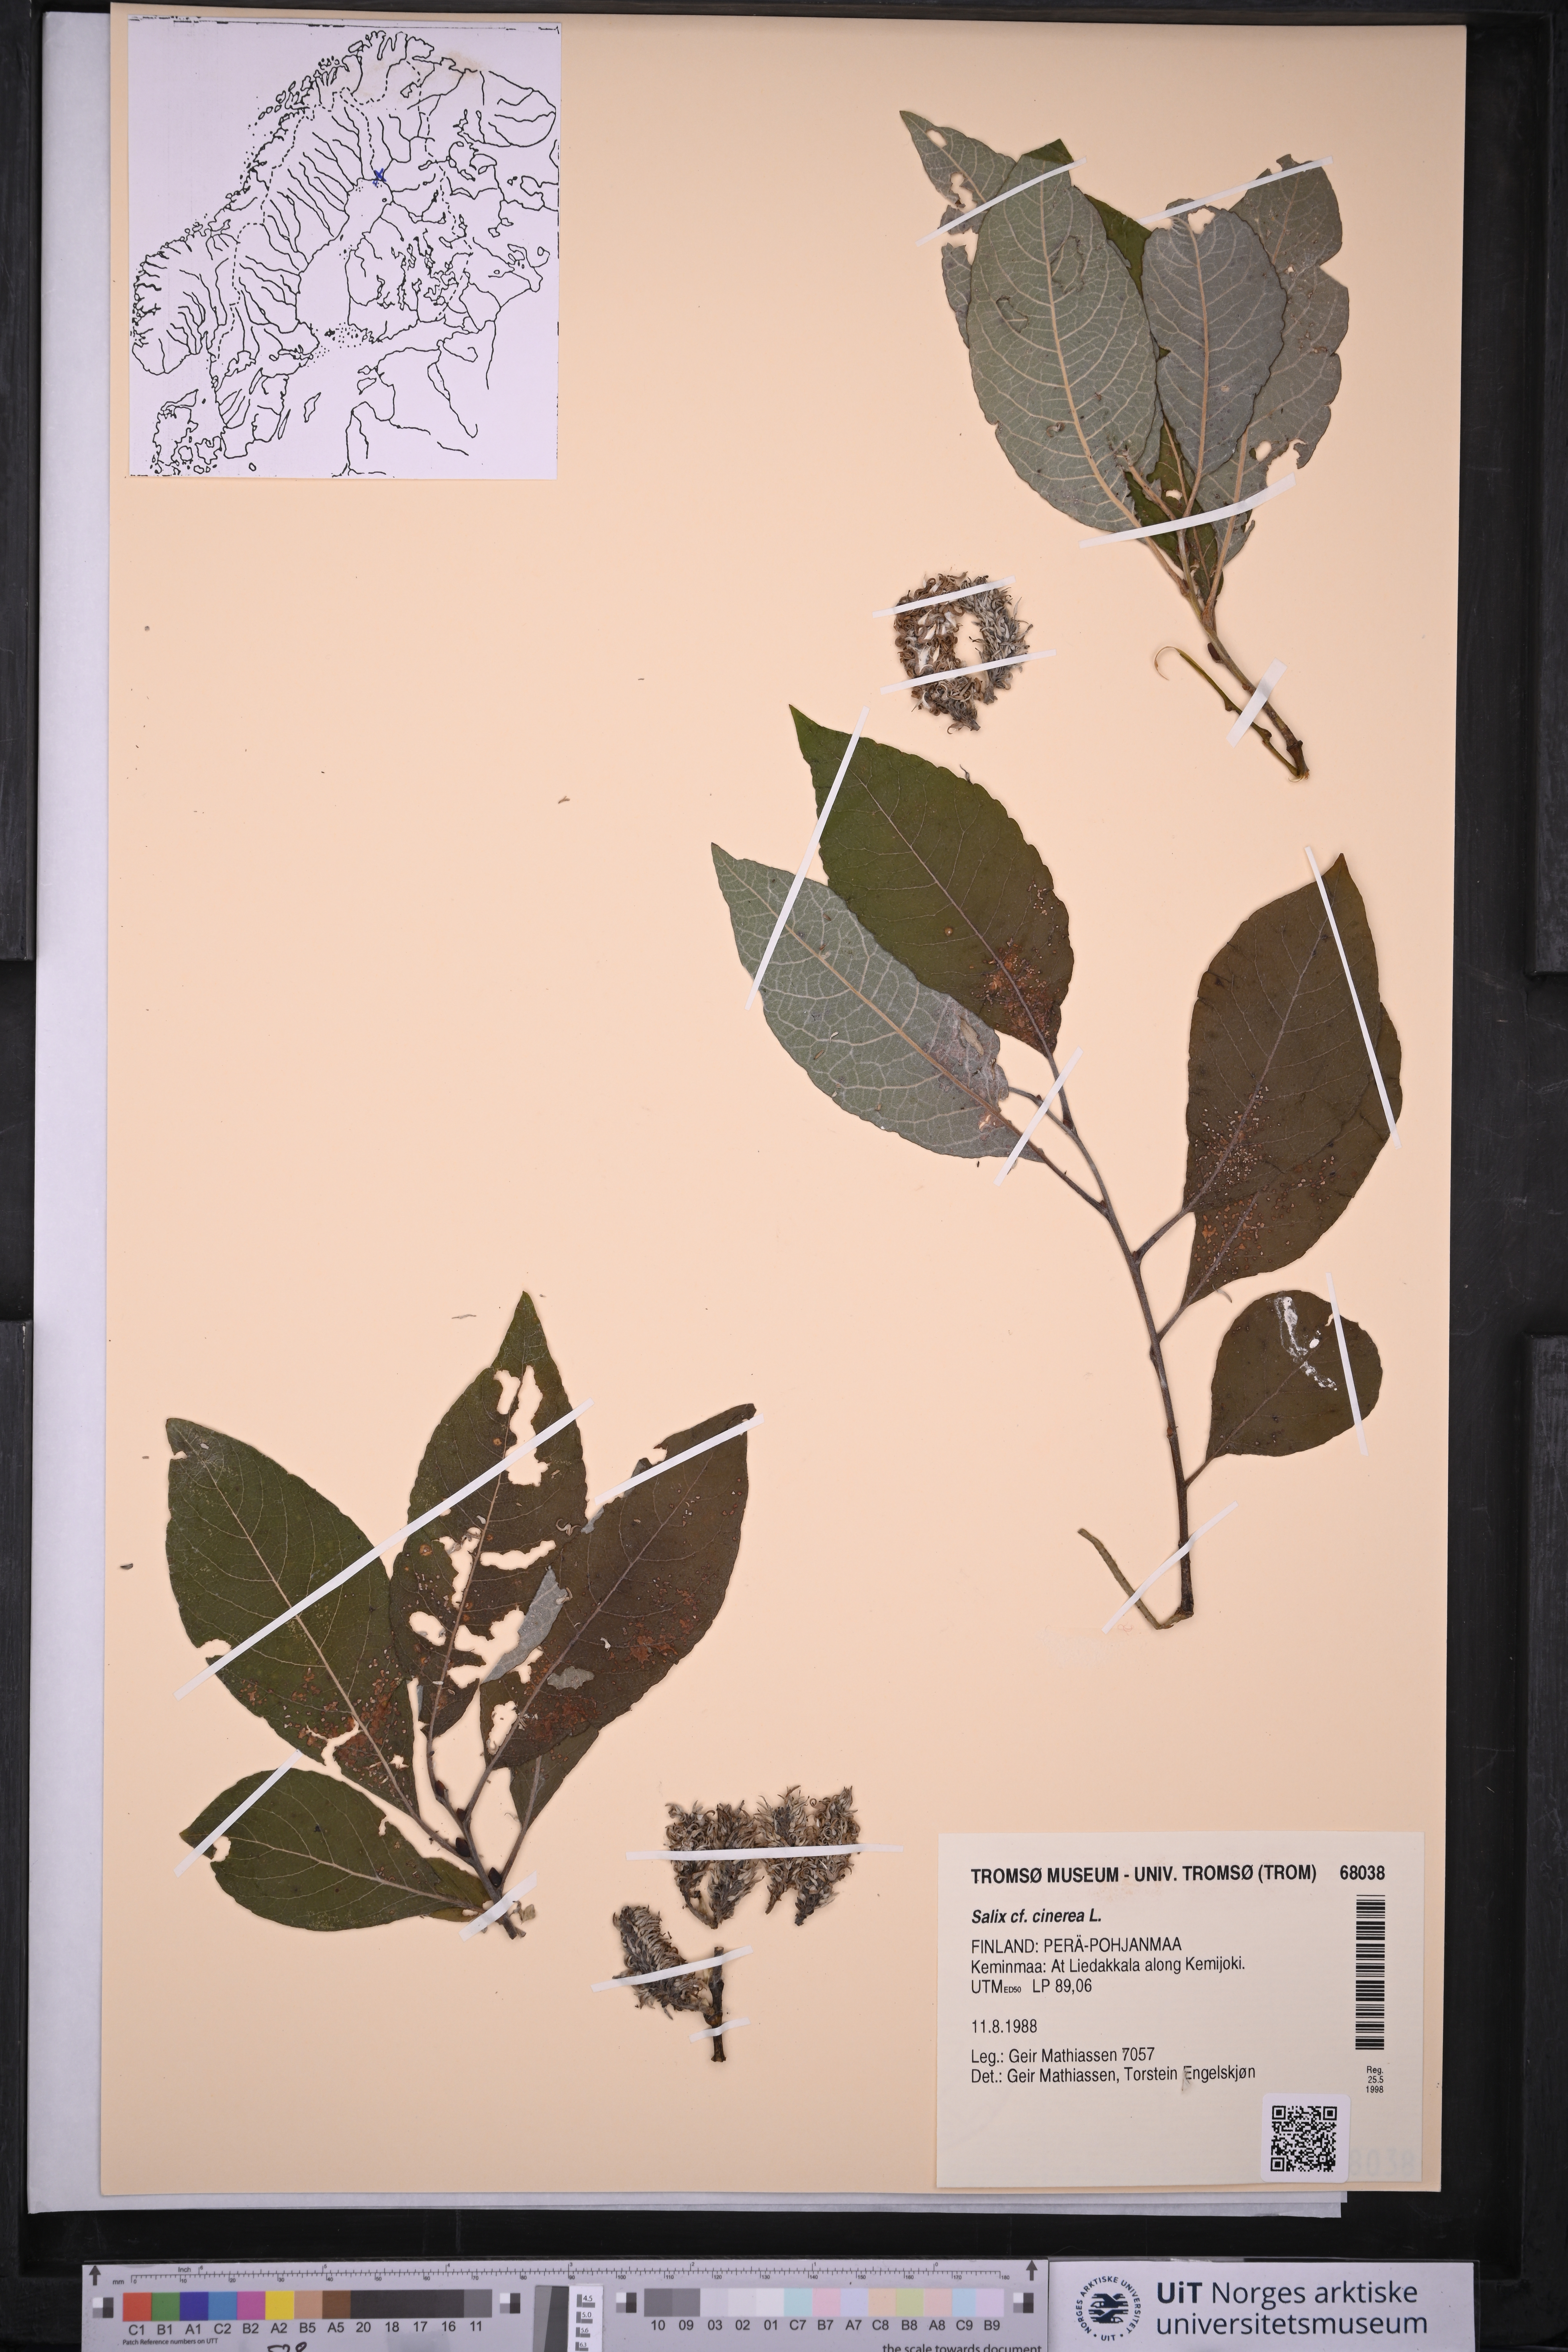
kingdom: Plantae
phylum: Tracheophyta
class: Magnoliopsida
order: Malpighiales
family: Salicaceae
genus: Salix
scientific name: Salix cinerea
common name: Common sallow
